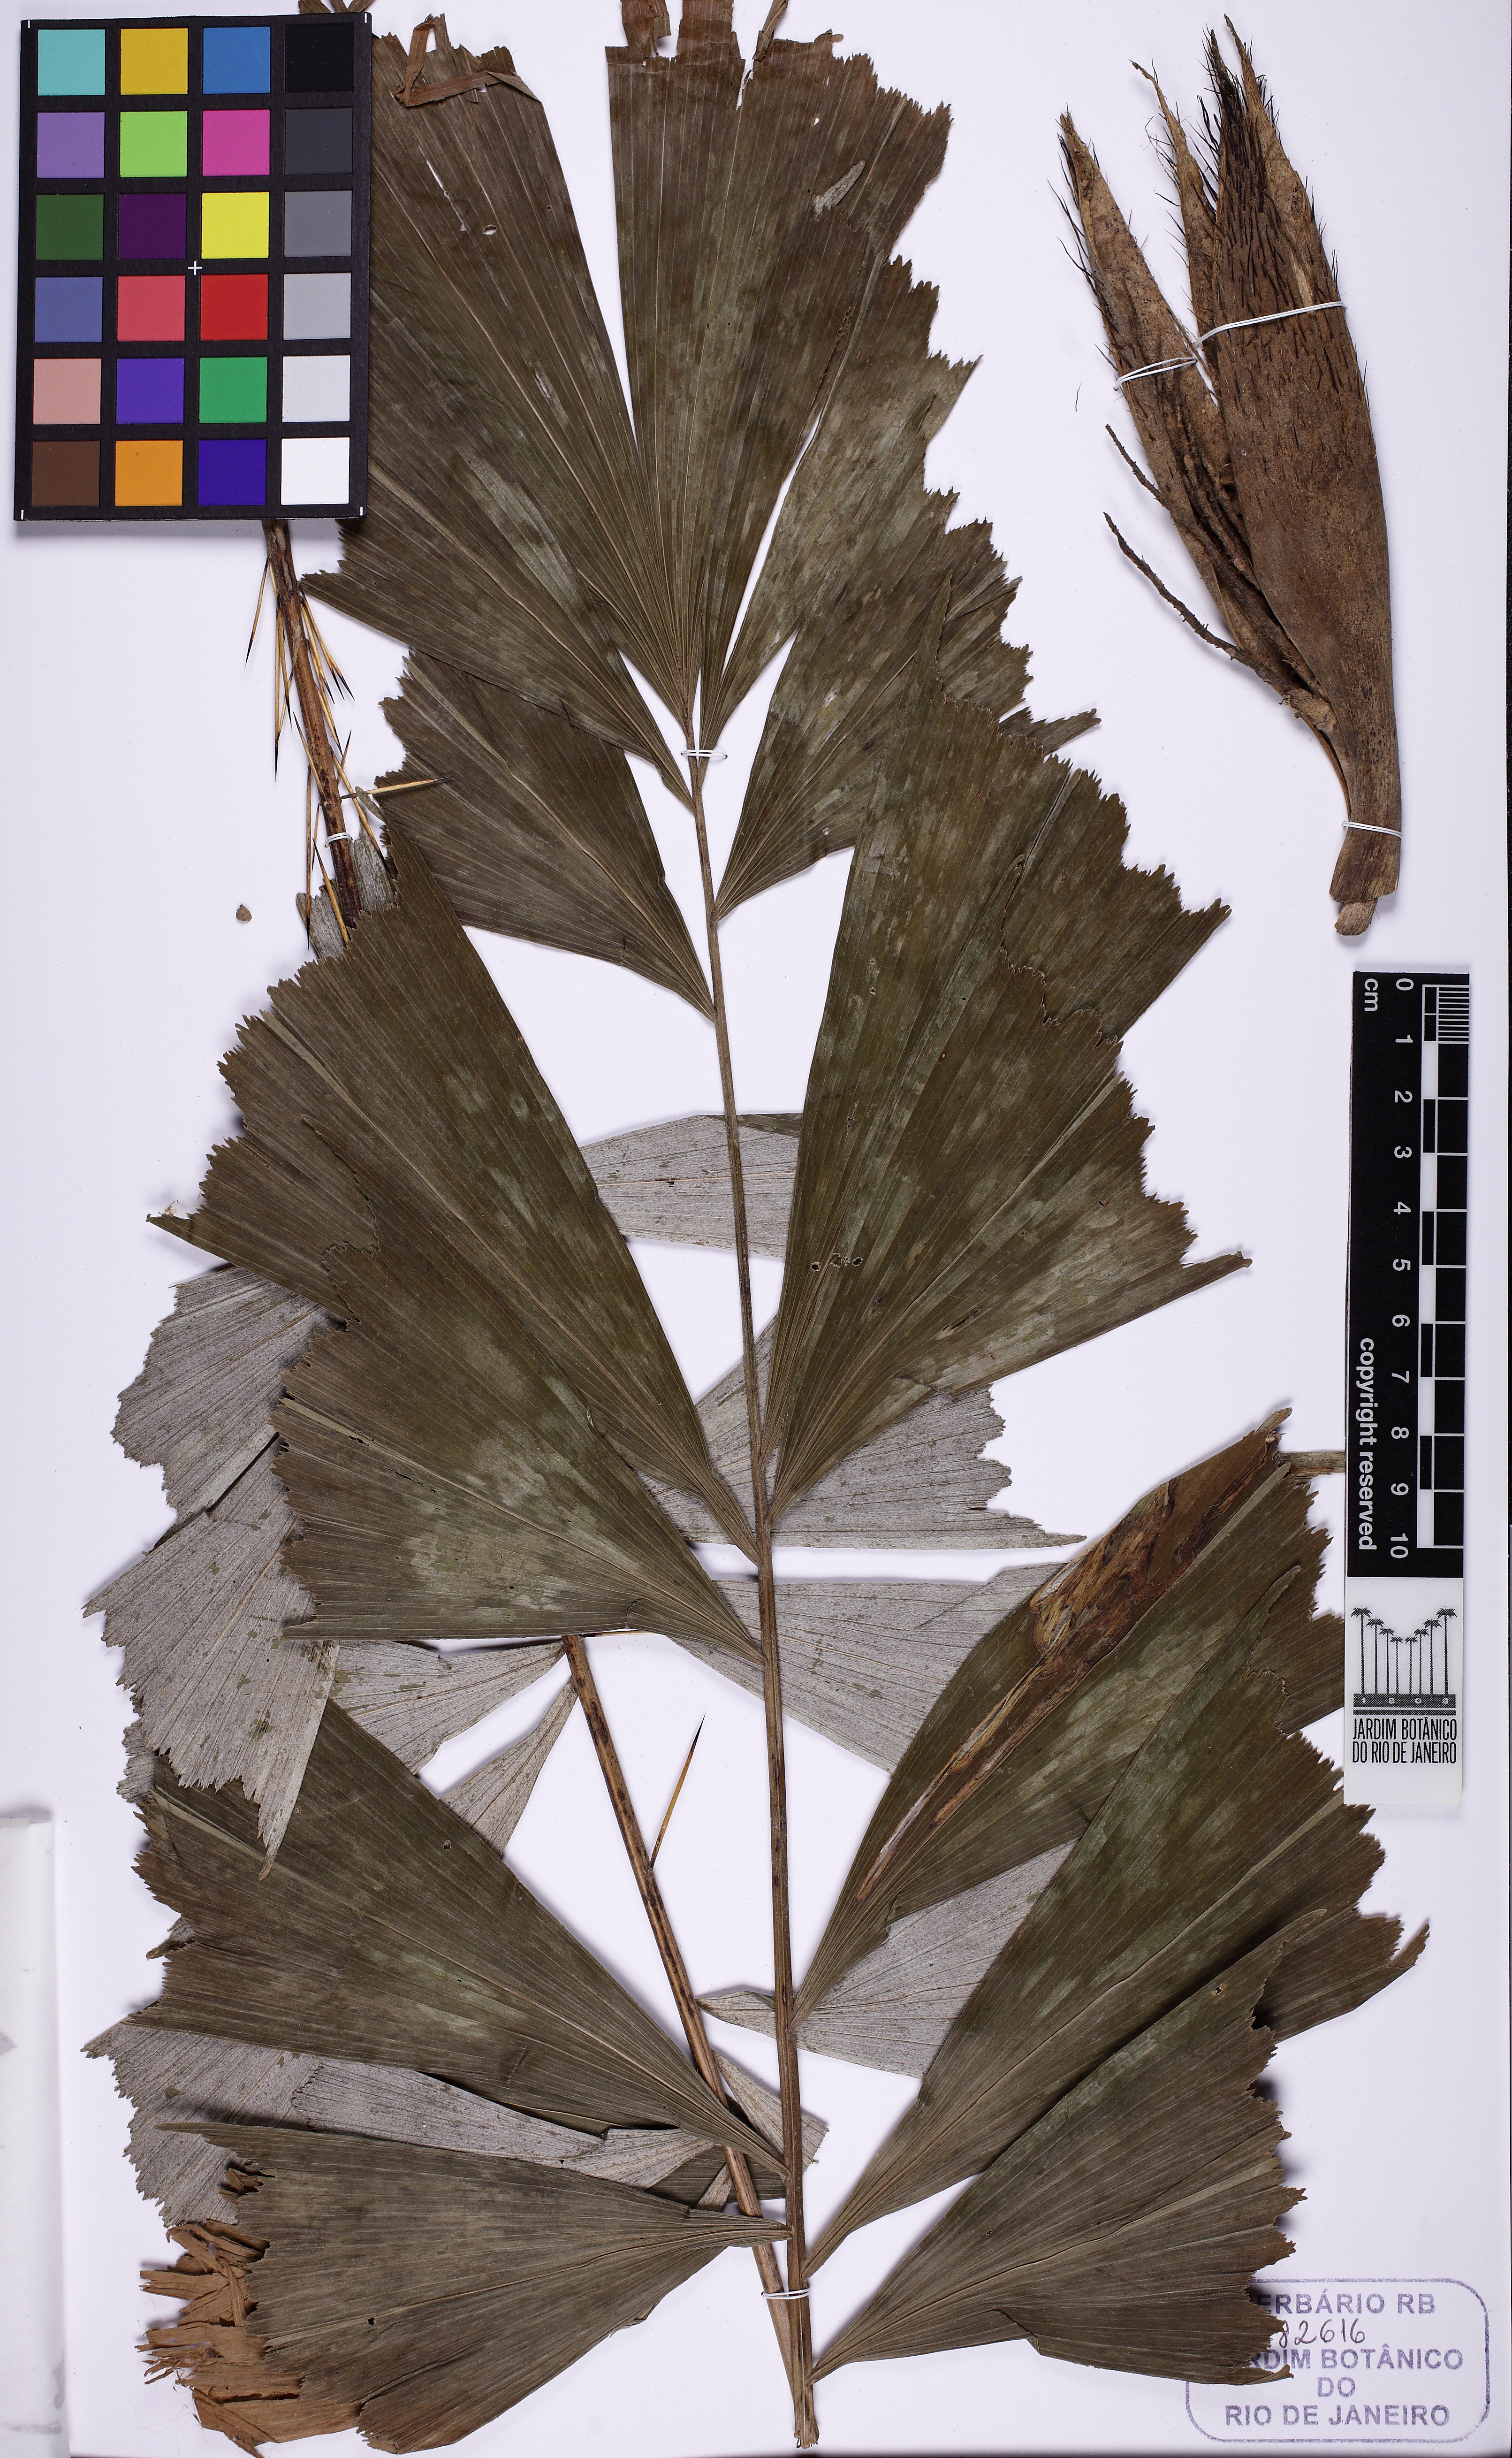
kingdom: Plantae
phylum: Tracheophyta
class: Liliopsida
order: Arecales
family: Arecaceae
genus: Bactris
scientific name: Bactris caryotifolia
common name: Caryota-leaf peach palm
